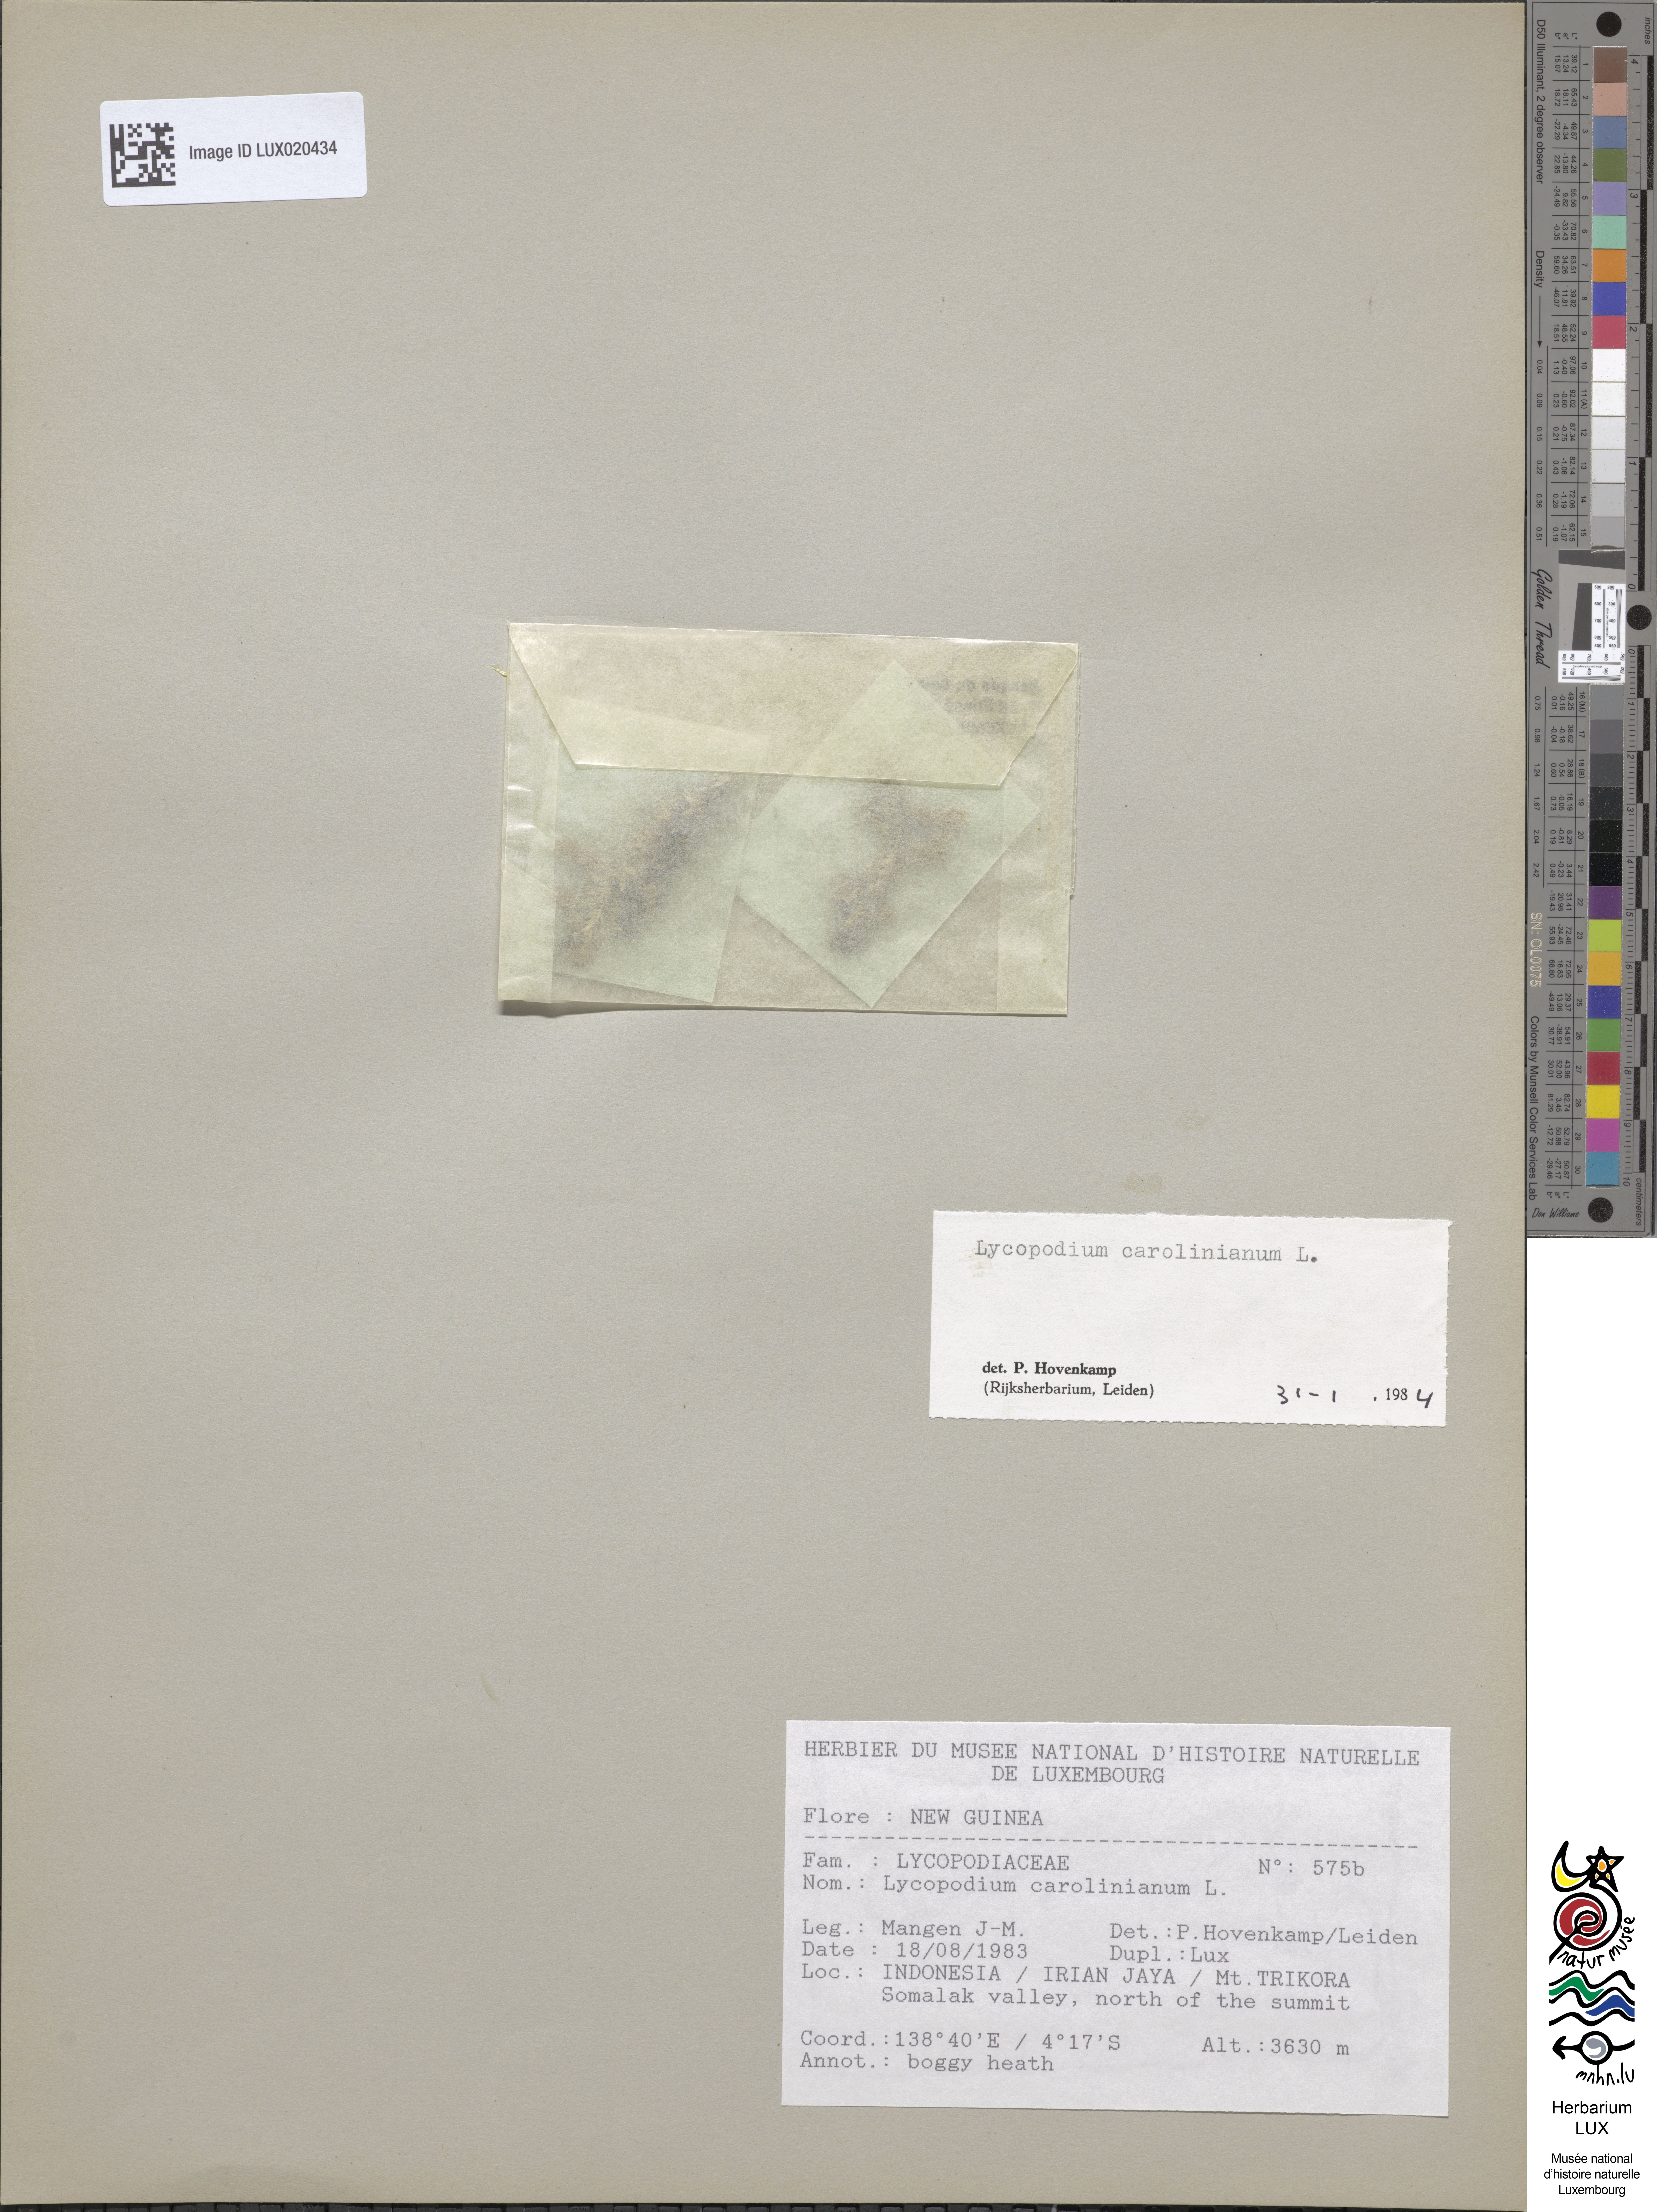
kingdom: Plantae
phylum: Tracheophyta
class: Lycopodiopsida
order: Lycopodiales
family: Lycopodiaceae
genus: Pseudolycopodiella
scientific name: Pseudolycopodiella caroliniana
